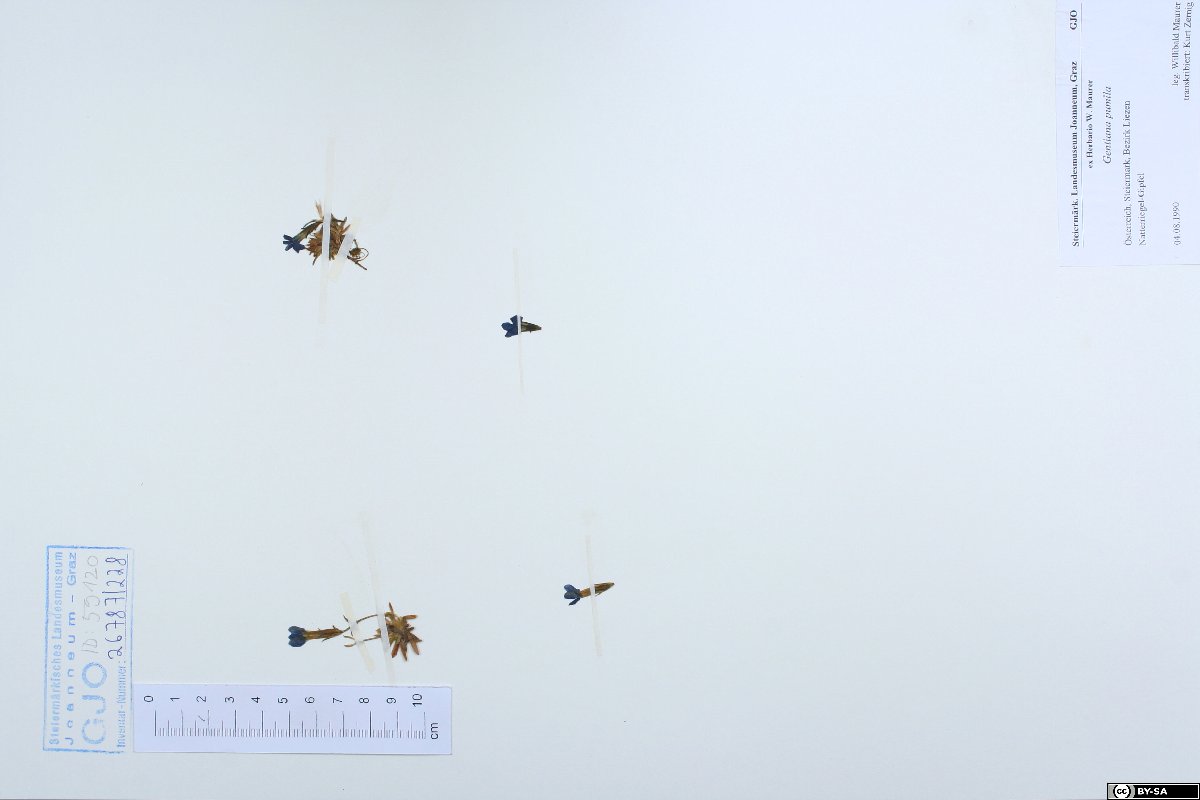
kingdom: Plantae
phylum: Tracheophyta
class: Magnoliopsida
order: Gentianales
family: Gentianaceae
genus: Gentiana
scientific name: Gentiana pumila
